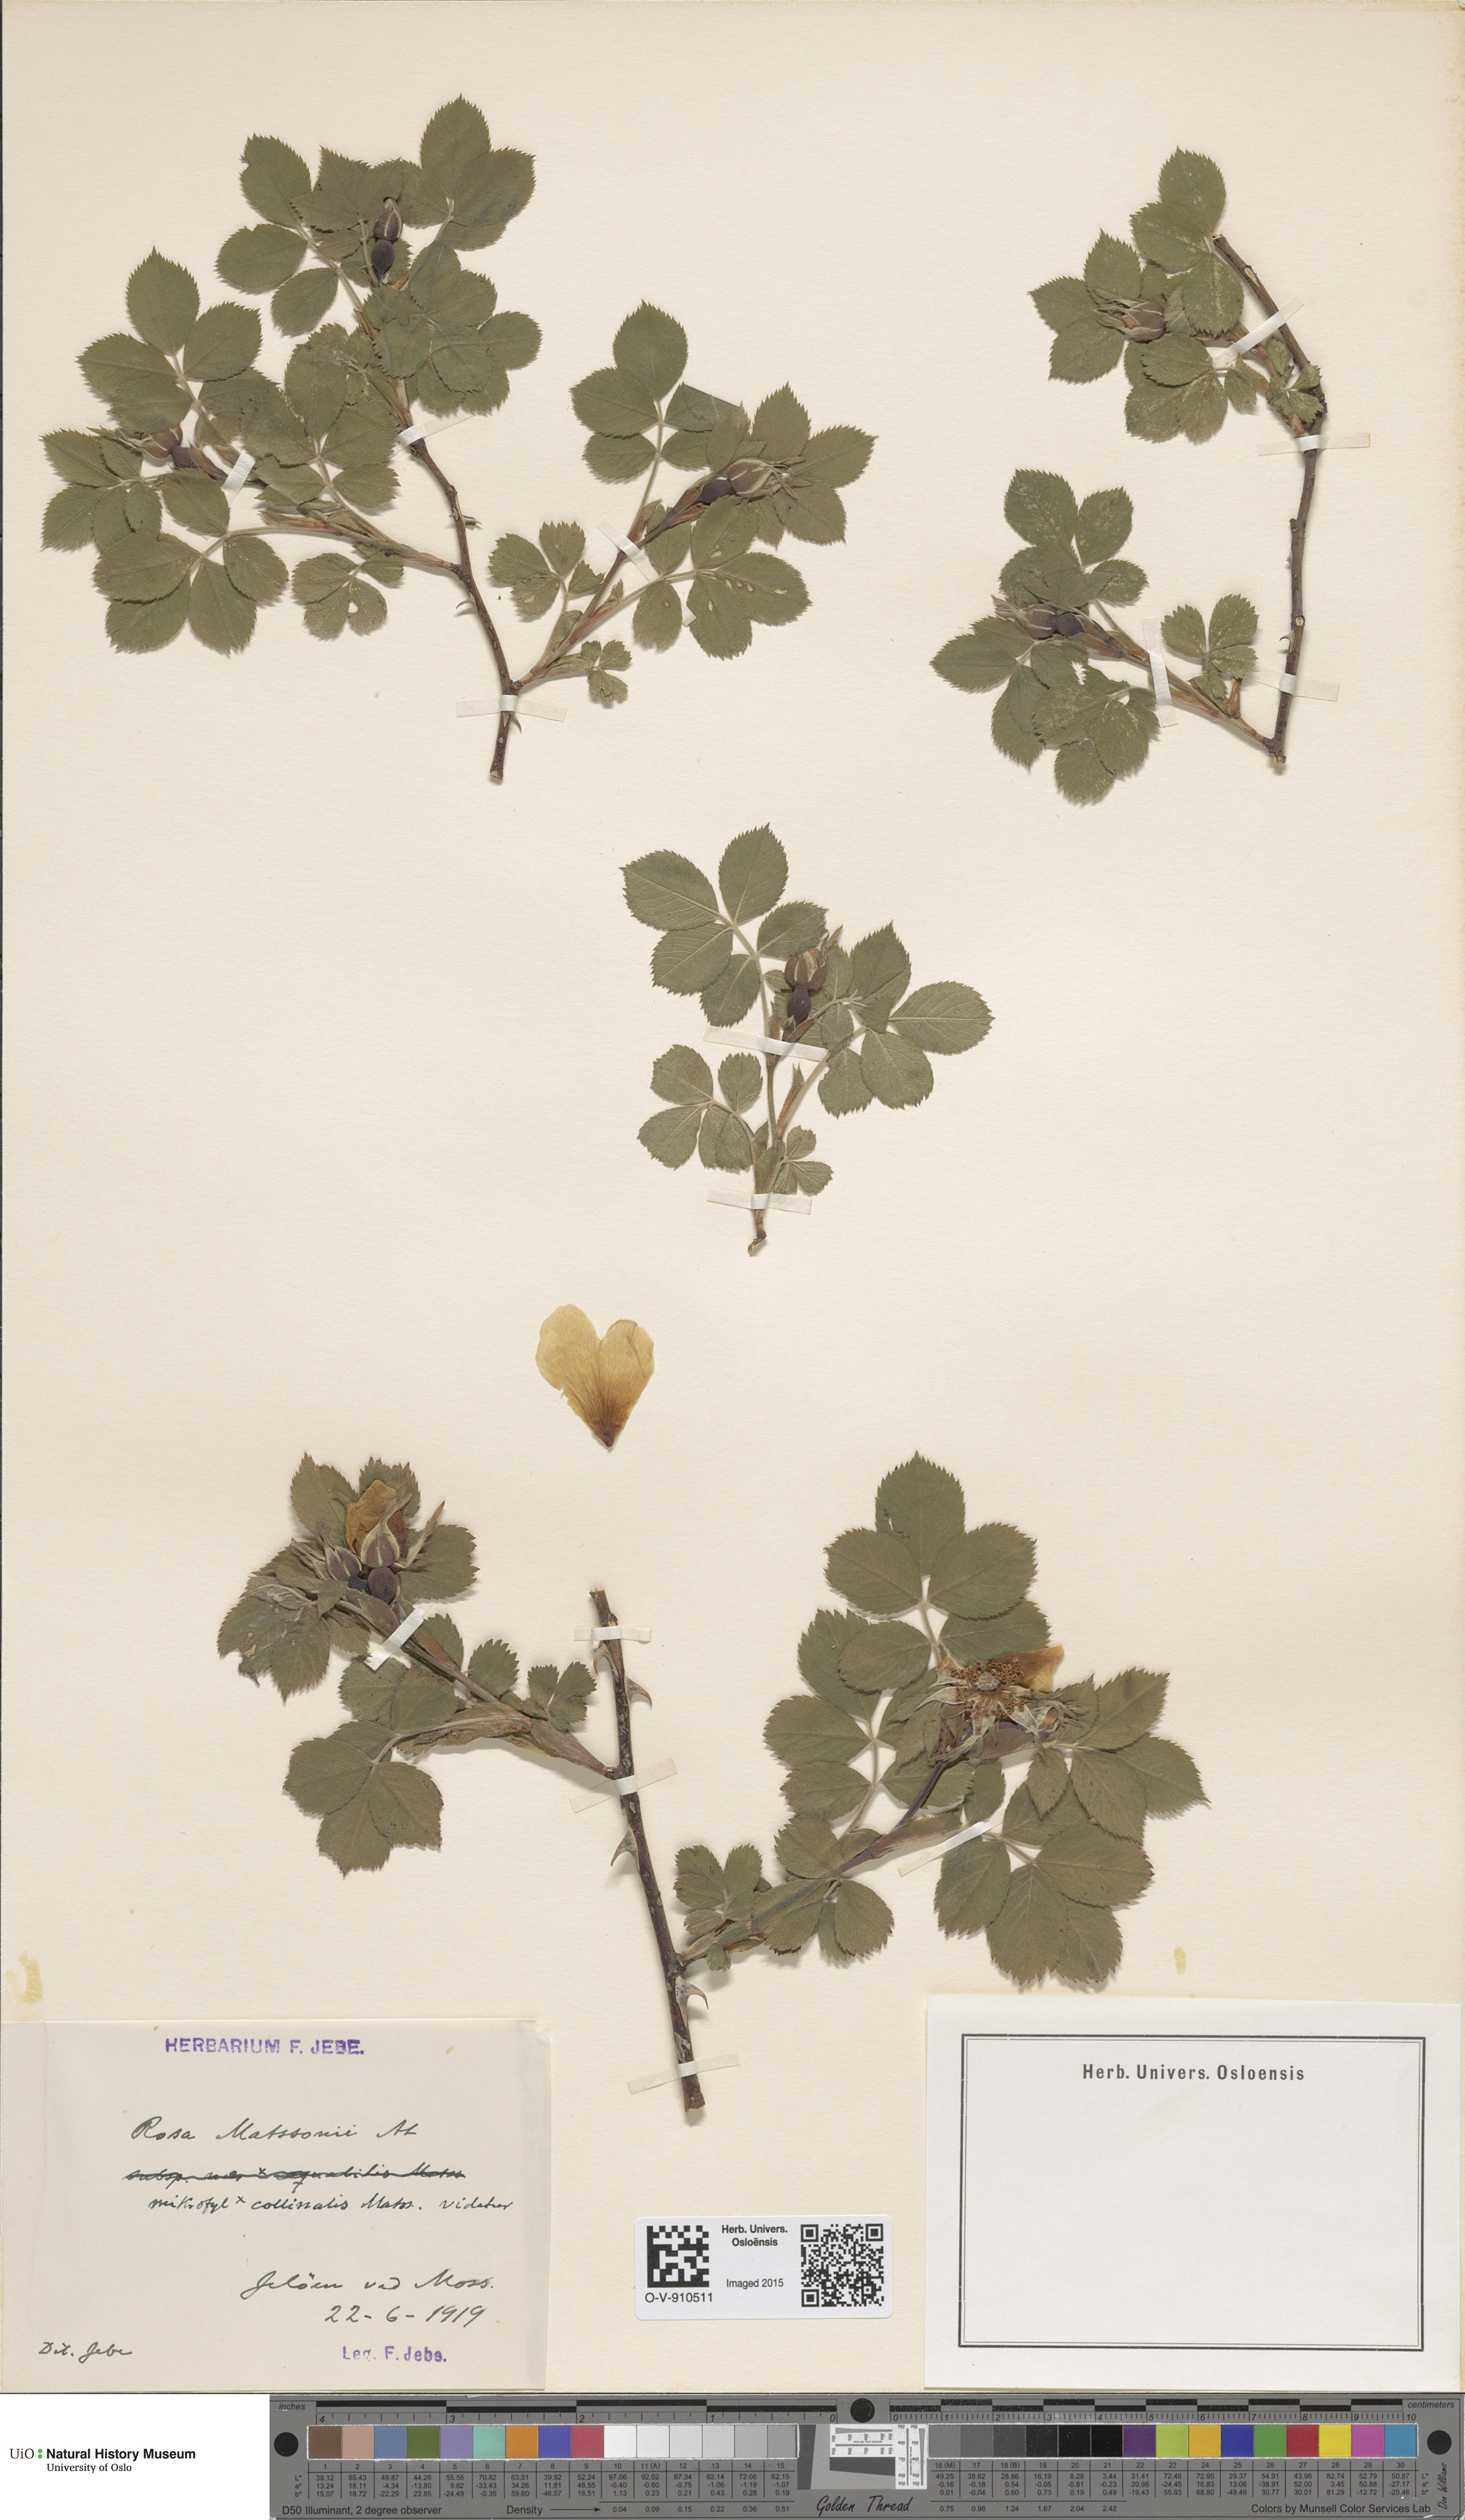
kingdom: Plantae
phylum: Tracheophyta
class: Magnoliopsida
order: Rosales
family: Rosaceae
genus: Rosa
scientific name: Rosa matssonii
